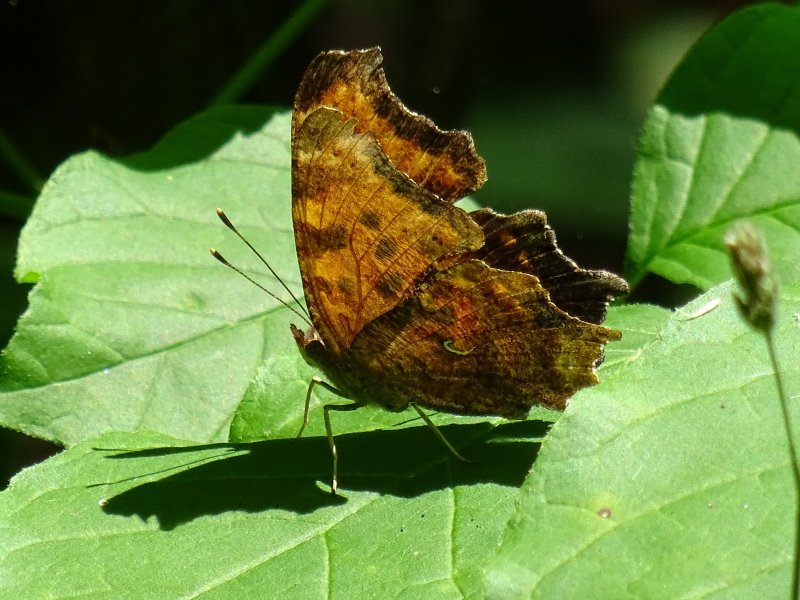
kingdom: Animalia
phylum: Arthropoda
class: Insecta
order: Lepidoptera
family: Nymphalidae
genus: Polygonia
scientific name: Polygonia comma
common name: Eastern Comma
